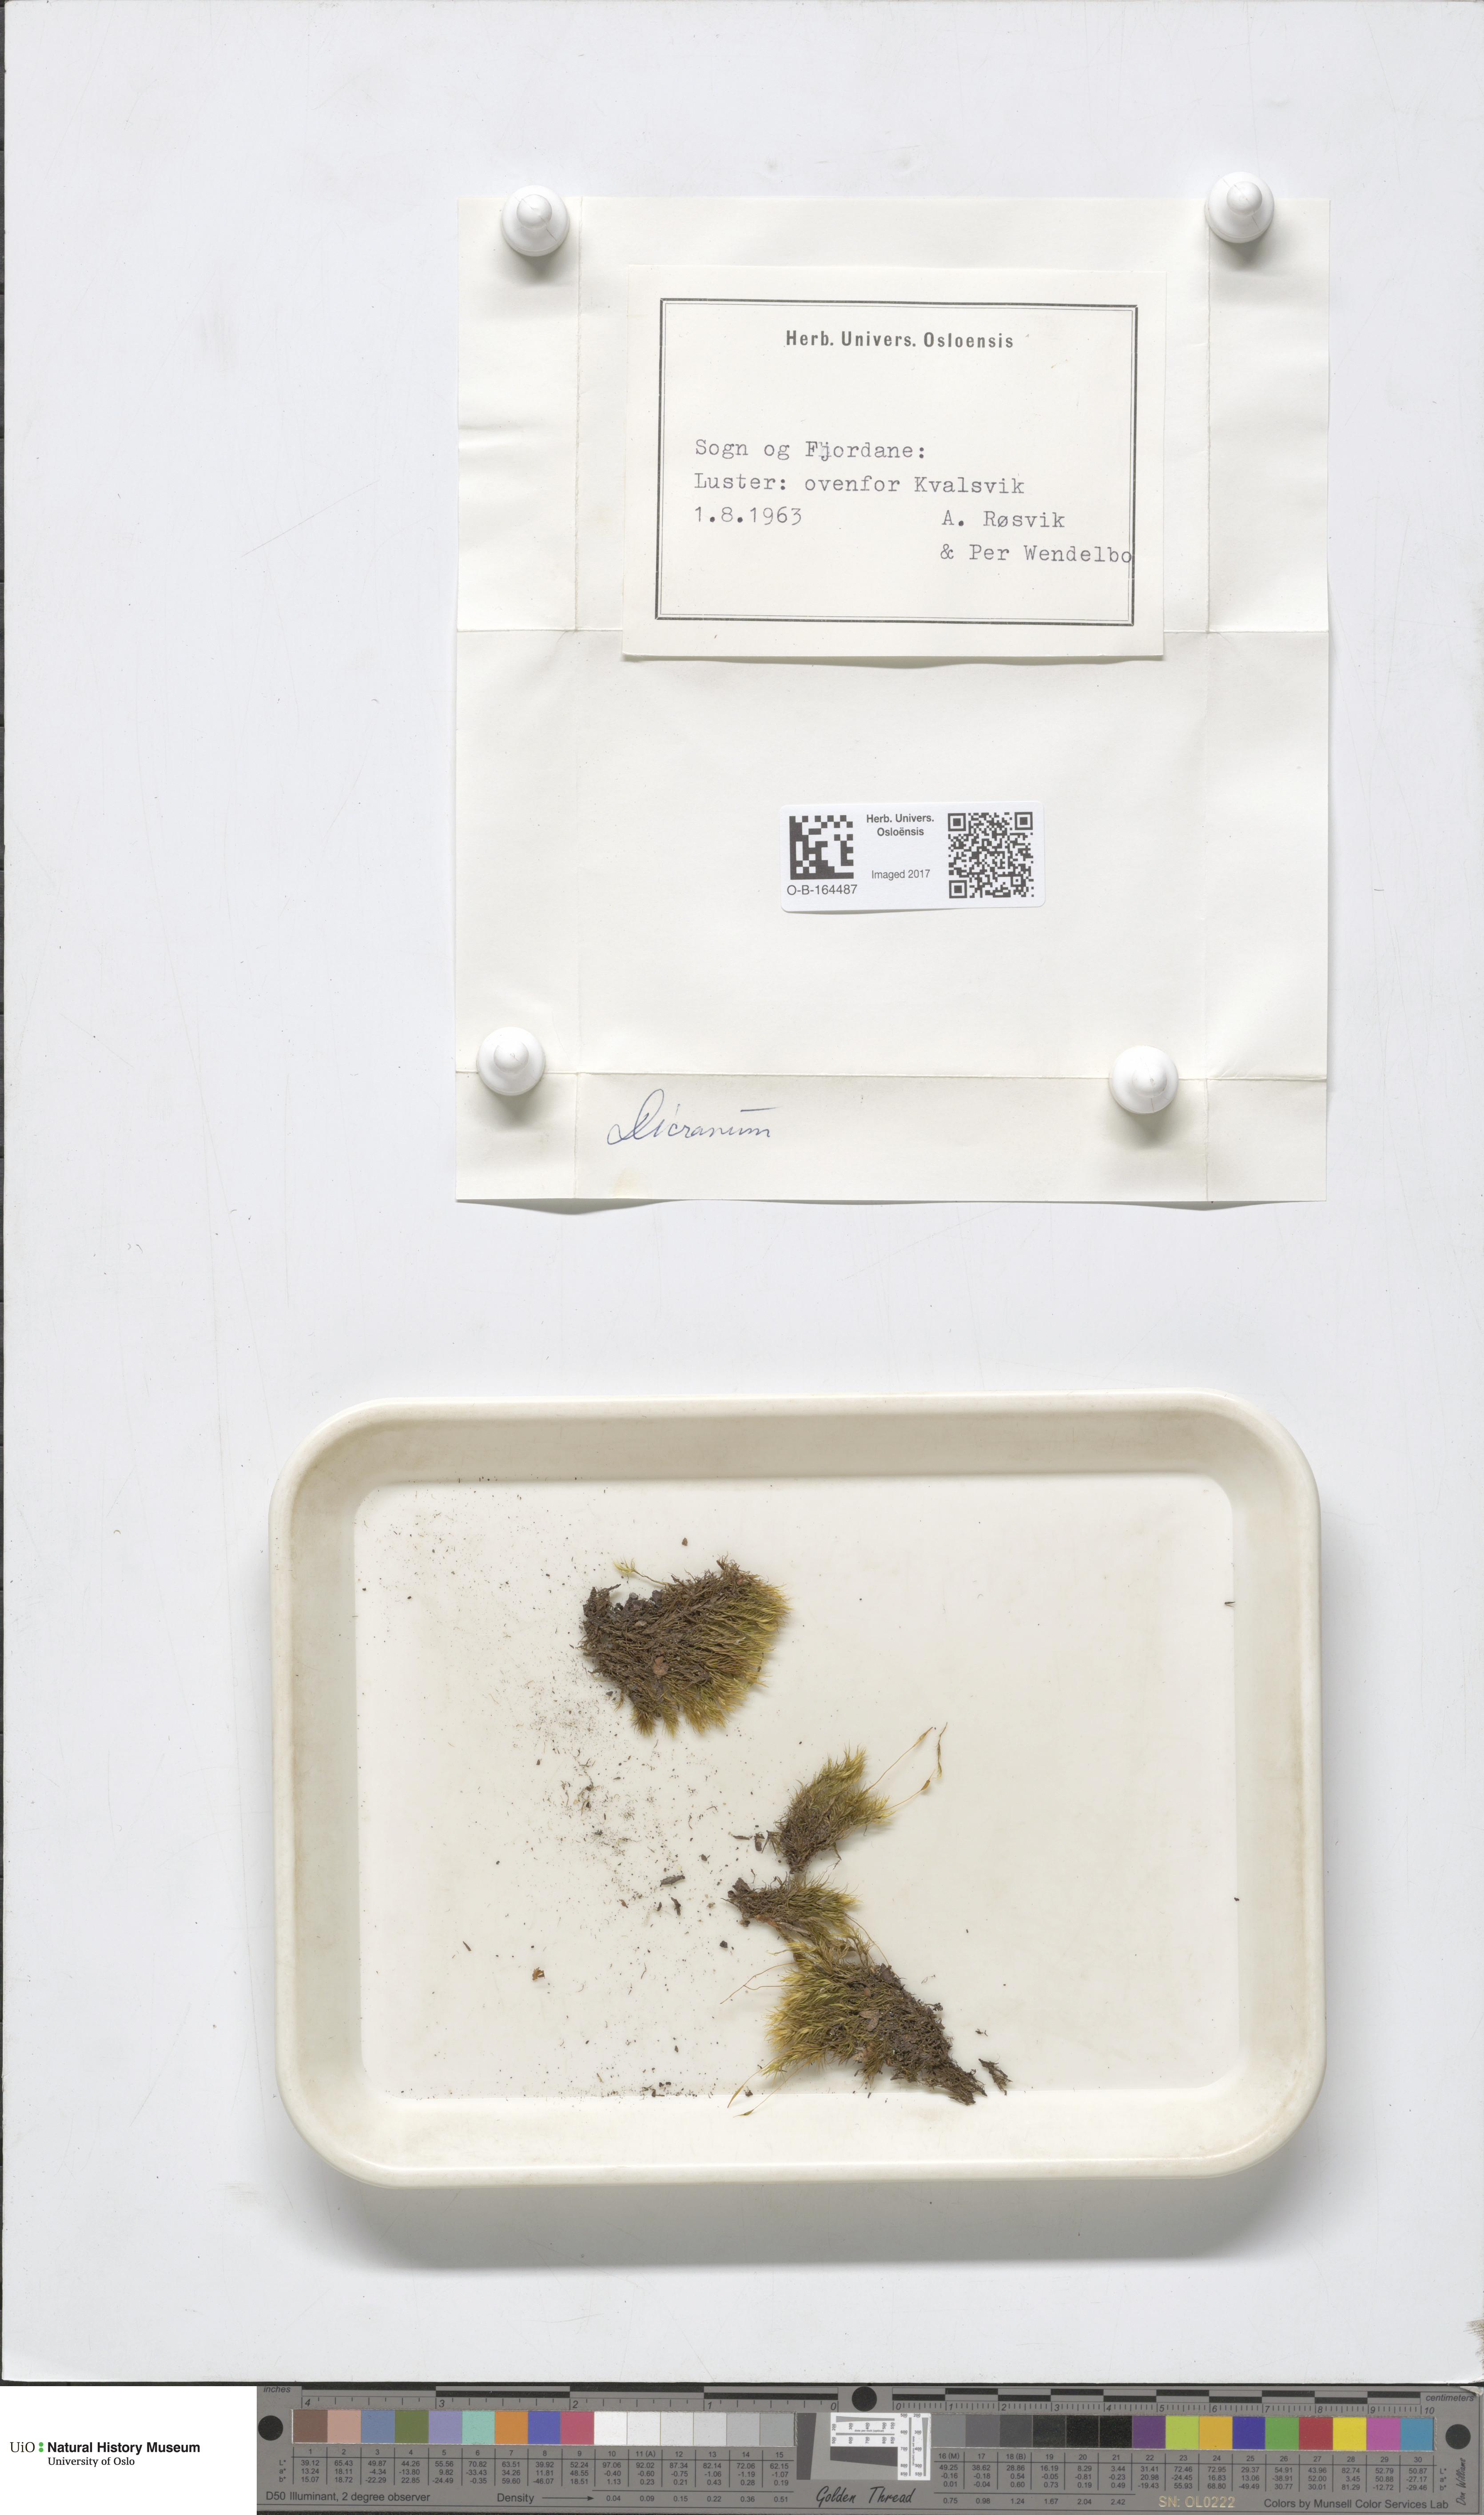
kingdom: Plantae
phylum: Bryophyta
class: Bryopsida
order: Dicranales
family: Dicranaceae
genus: Dicranum
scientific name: Dicranum
